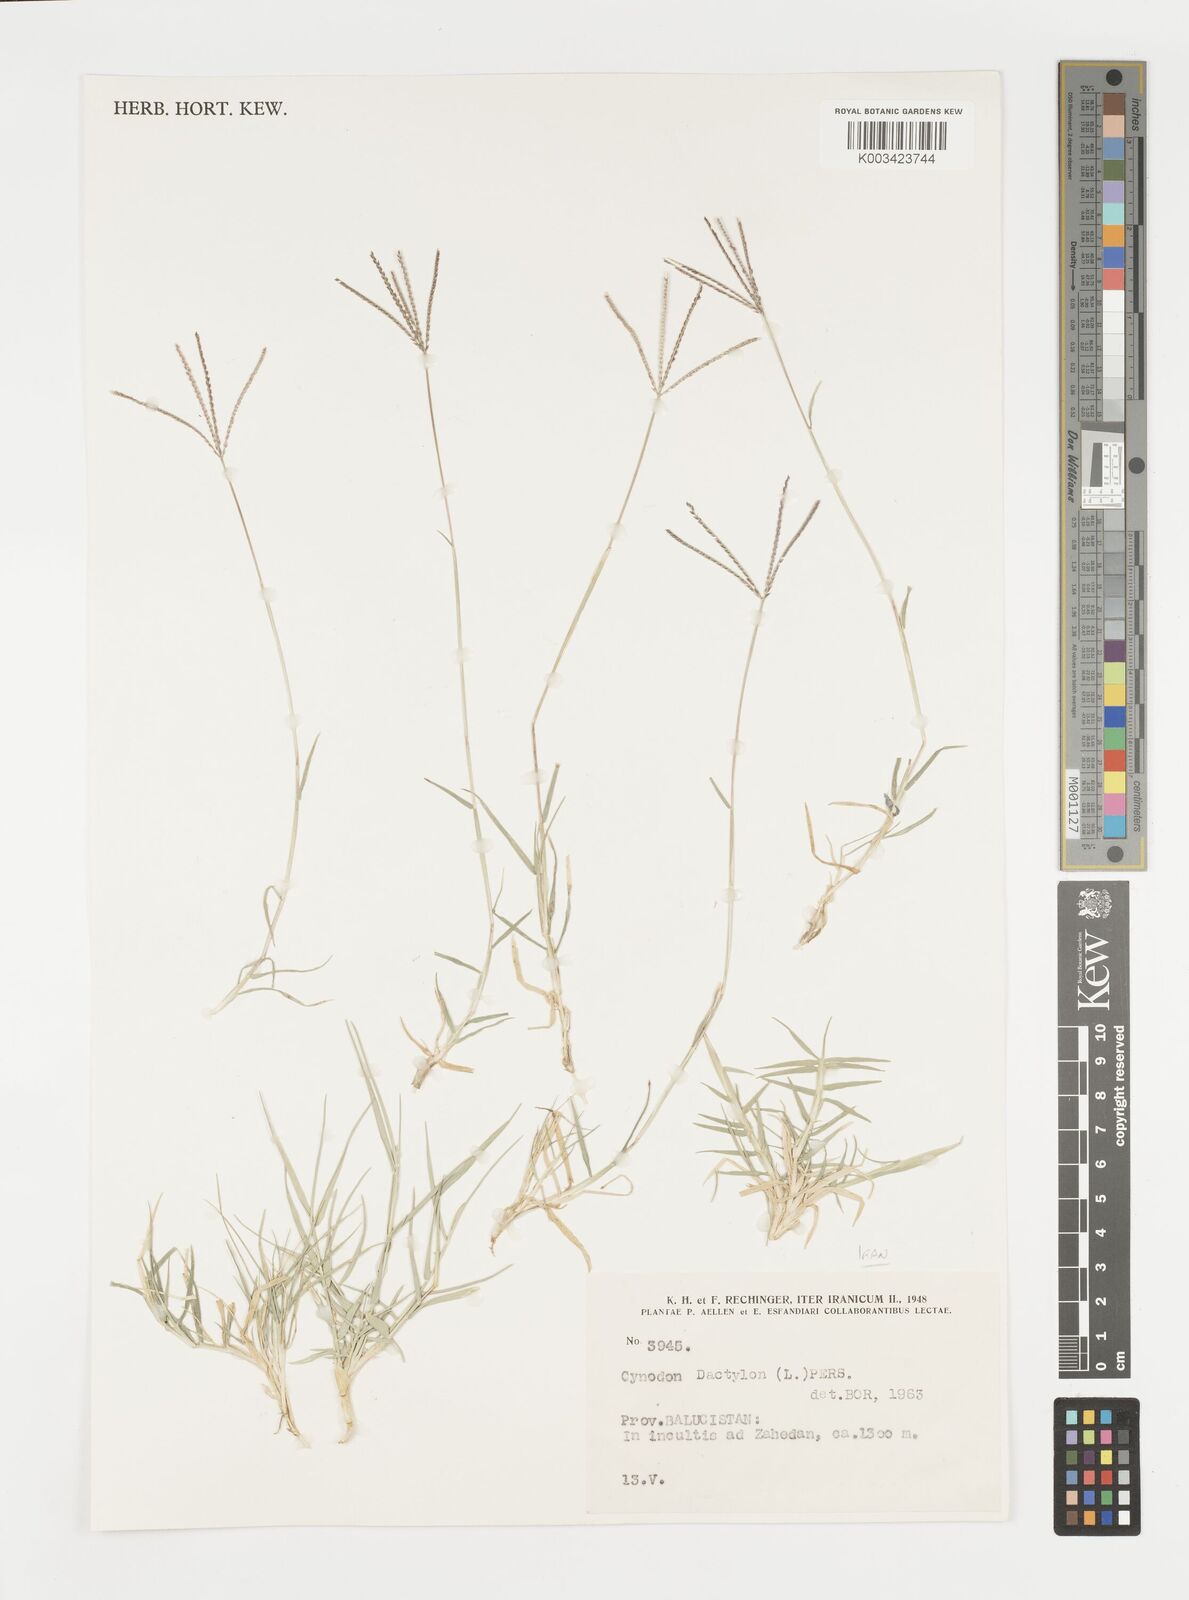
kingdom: Plantae
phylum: Tracheophyta
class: Liliopsida
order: Poales
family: Poaceae
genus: Cynodon
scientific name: Cynodon dactylon
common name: Bermuda grass
